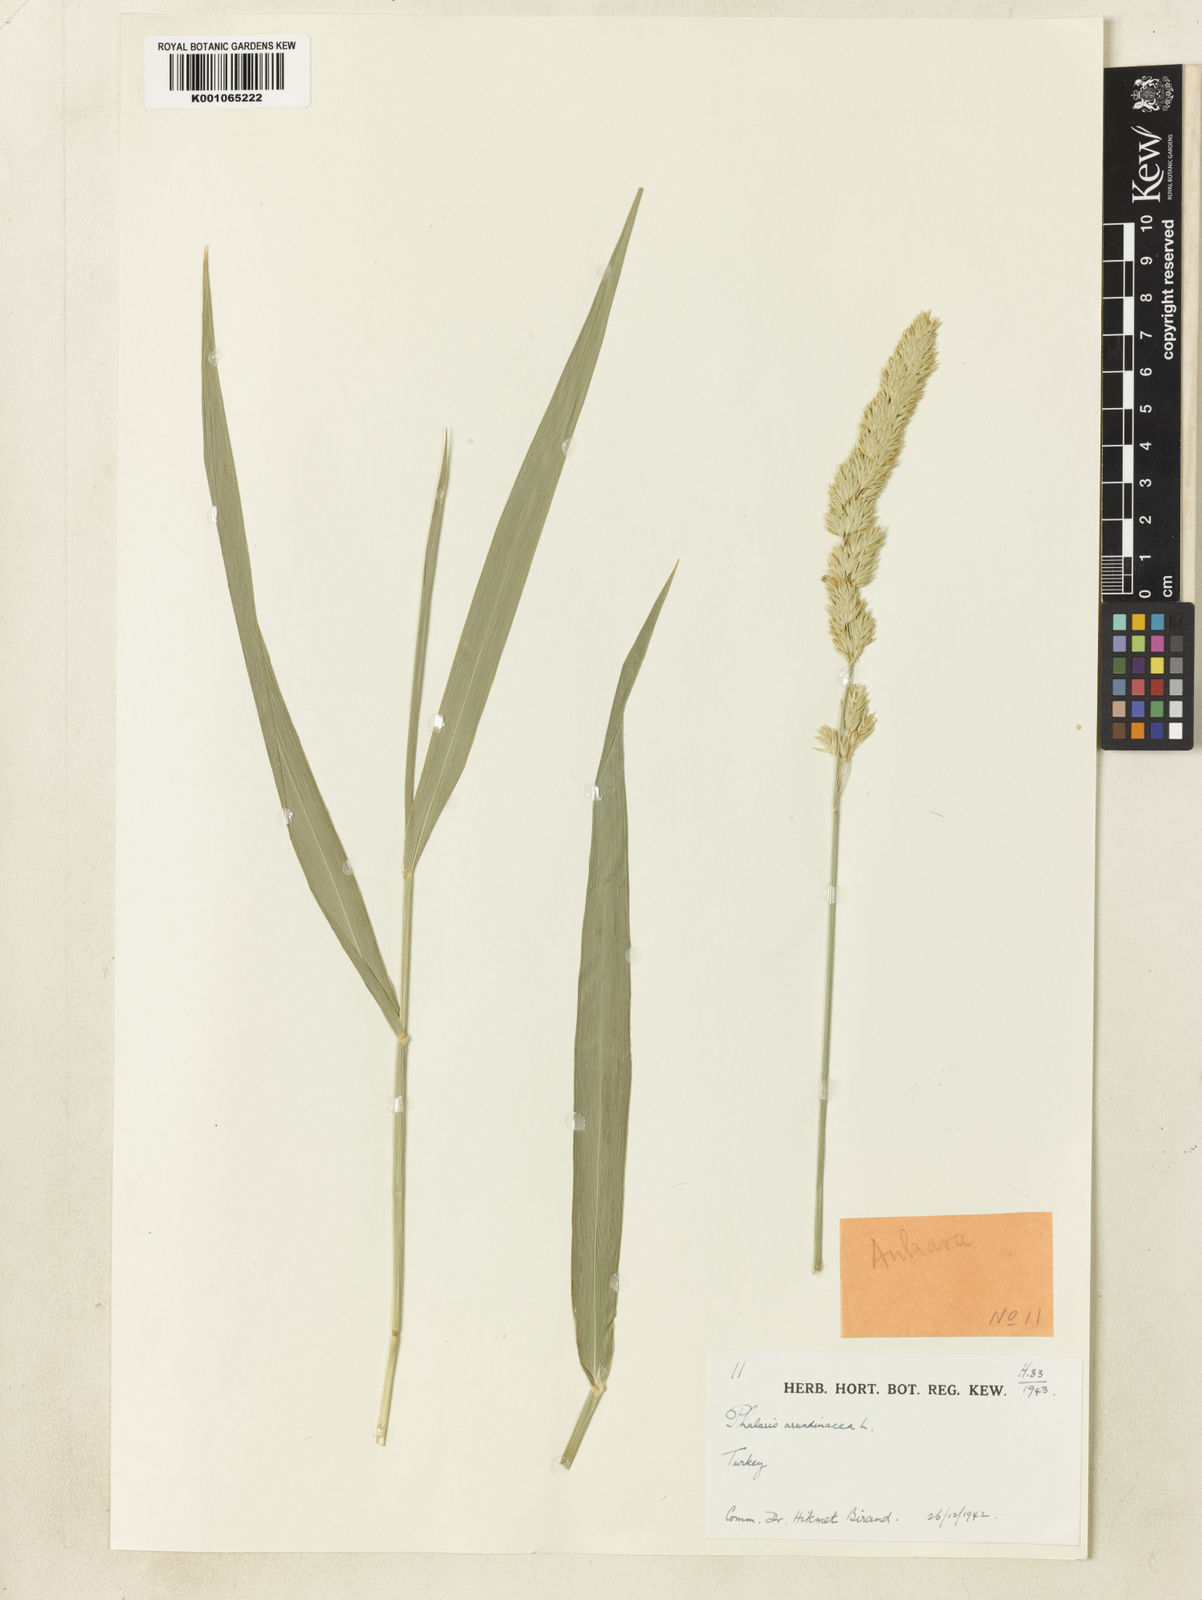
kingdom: Plantae
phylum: Tracheophyta
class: Liliopsida
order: Poales
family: Poaceae
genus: Phalaris
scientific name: Phalaris arundinacea
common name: Reed canary-grass
